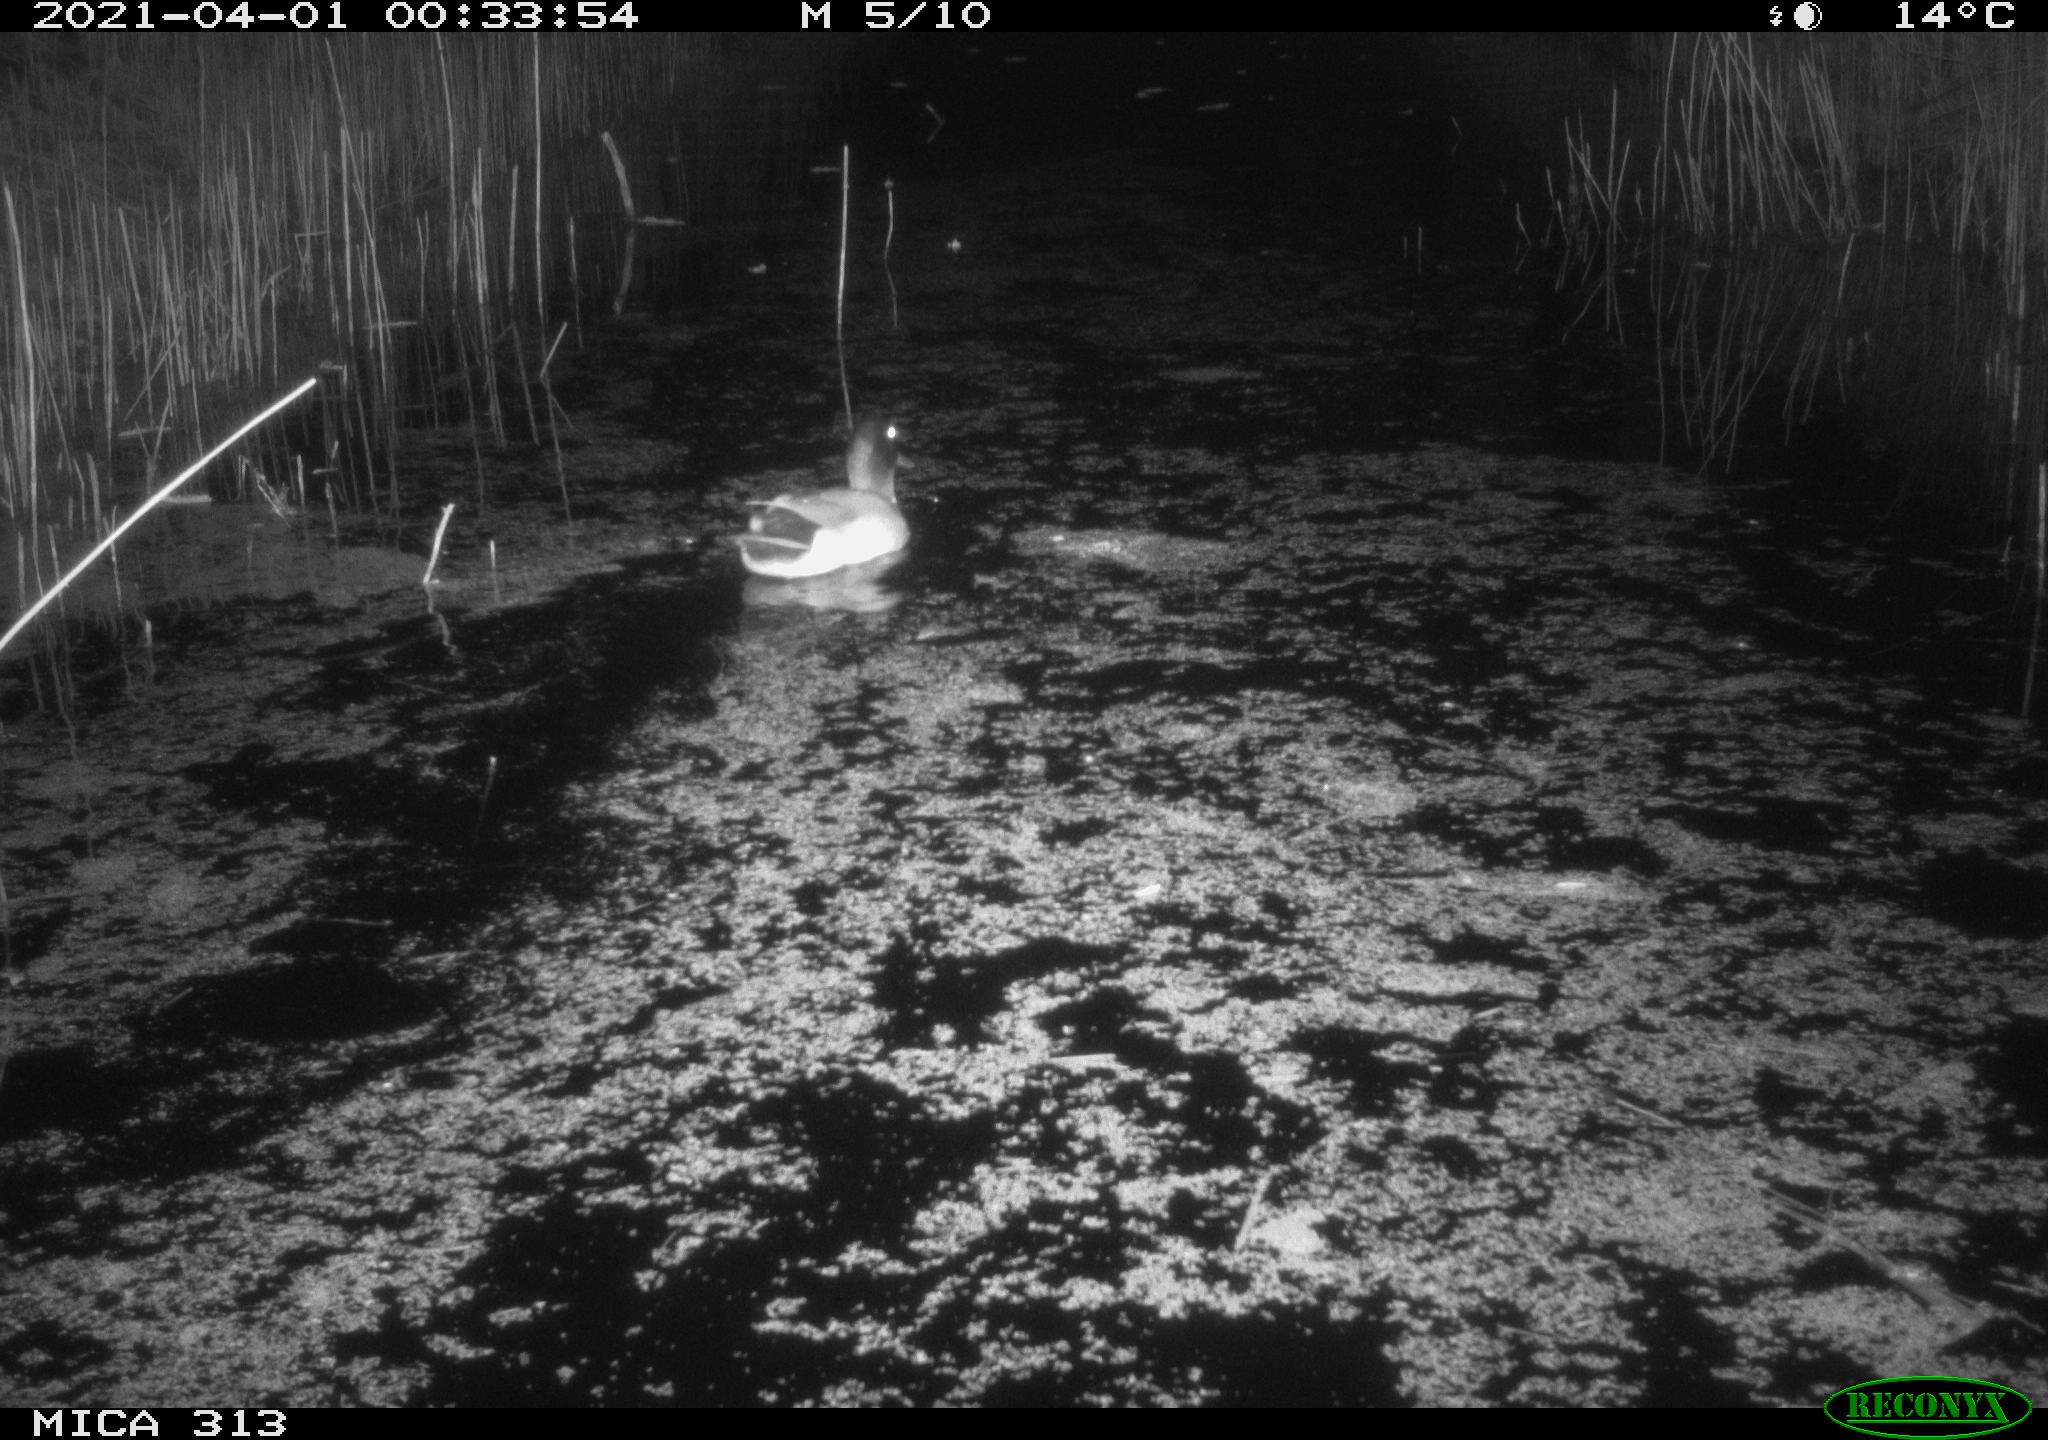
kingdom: Animalia
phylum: Chordata
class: Aves
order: Anseriformes
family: Anatidae
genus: Anas
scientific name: Anas platyrhynchos
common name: Mallard
